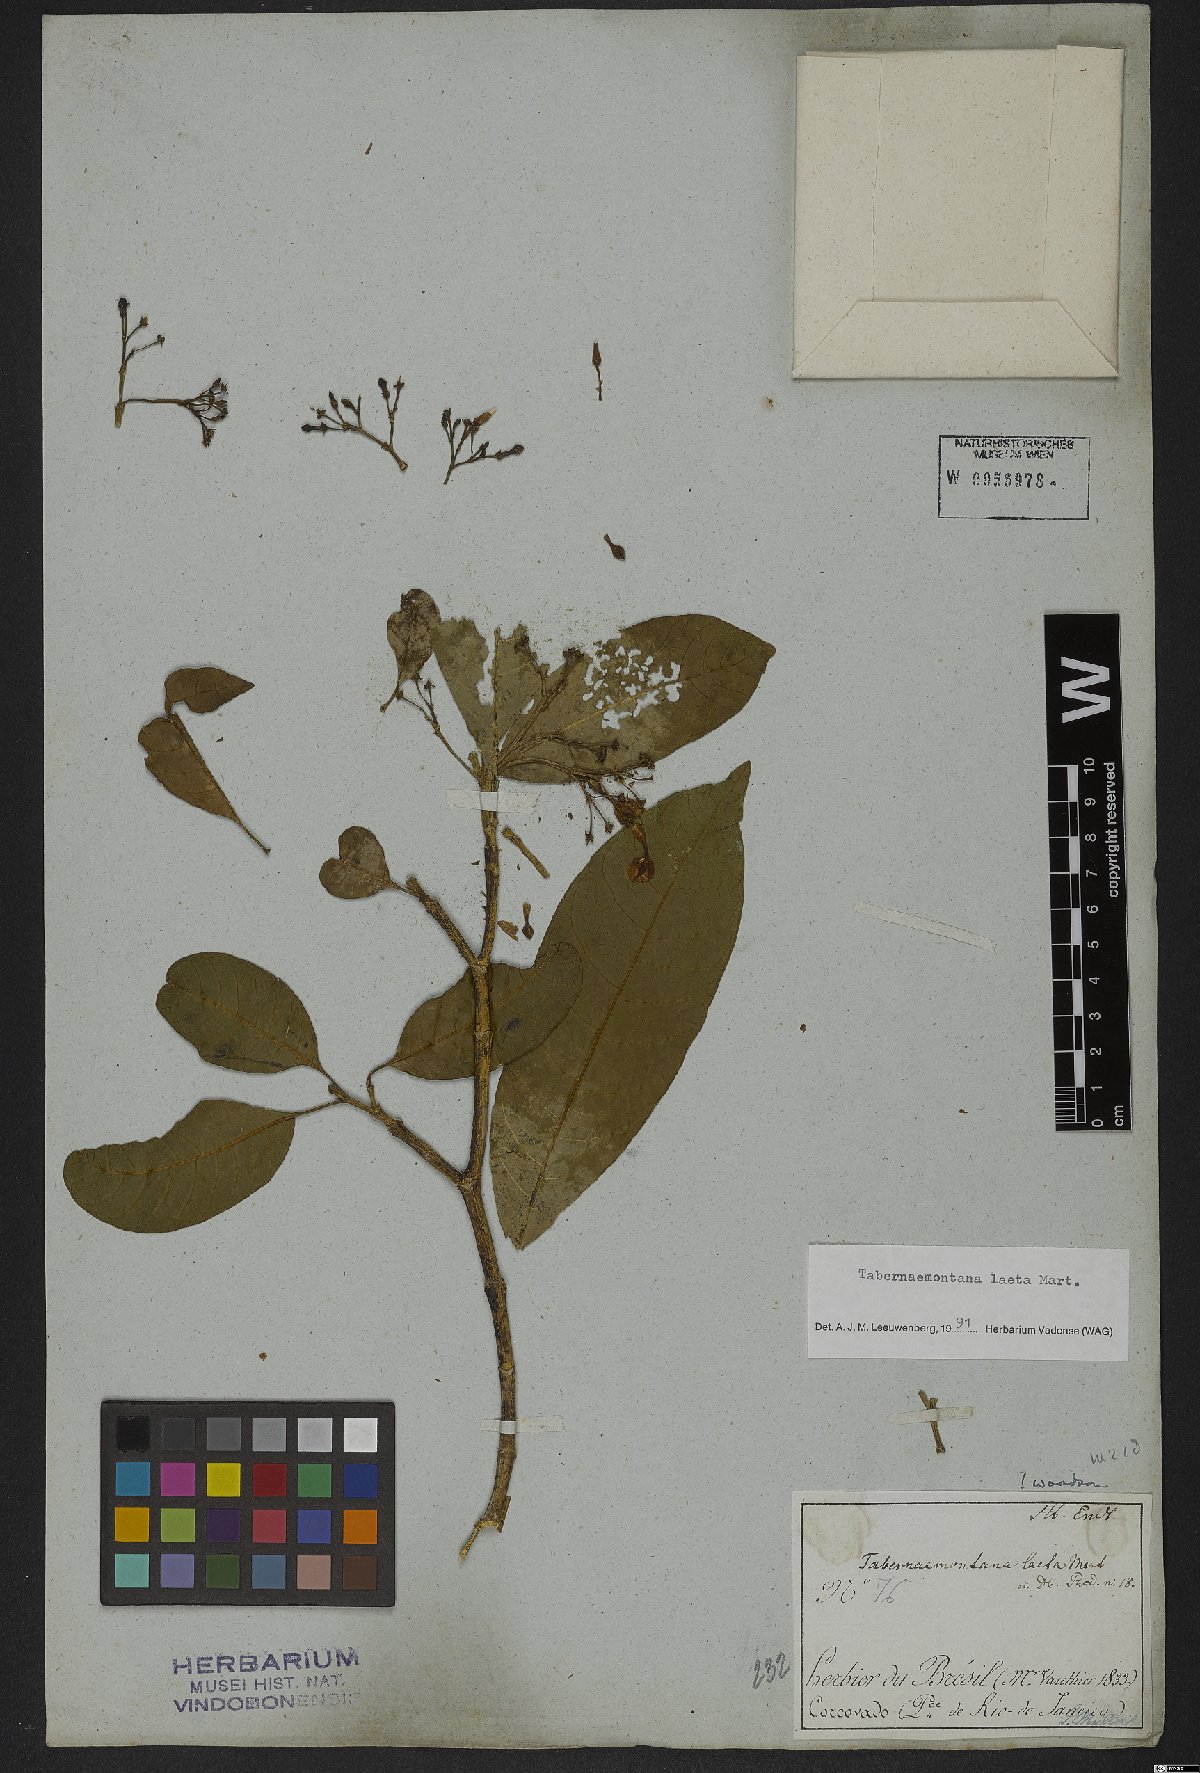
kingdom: Plantae
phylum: Tracheophyta
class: Magnoliopsida
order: Gentianales
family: Apocynaceae
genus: Tabernaemontana
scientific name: Tabernaemontana laeta
